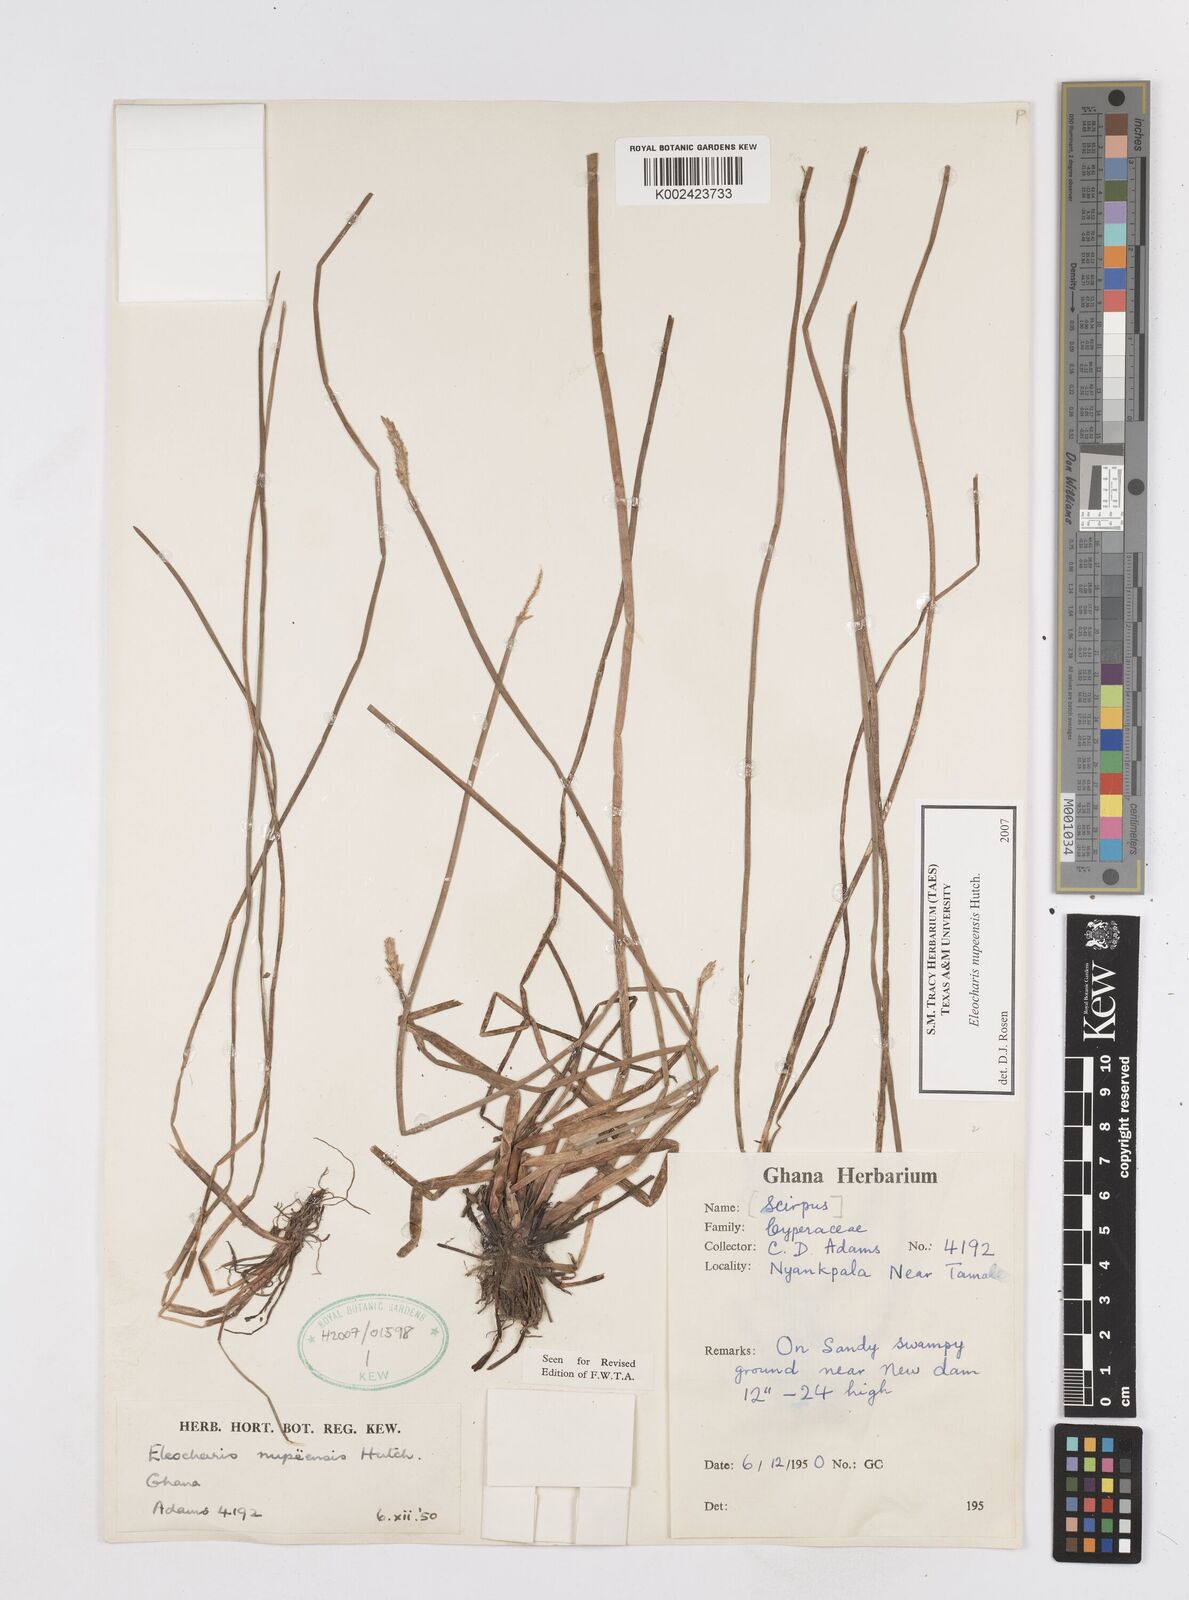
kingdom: Plantae
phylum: Tracheophyta
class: Liliopsida
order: Poales
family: Cyperaceae
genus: Eleocharis
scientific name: Eleocharis nupeensis
